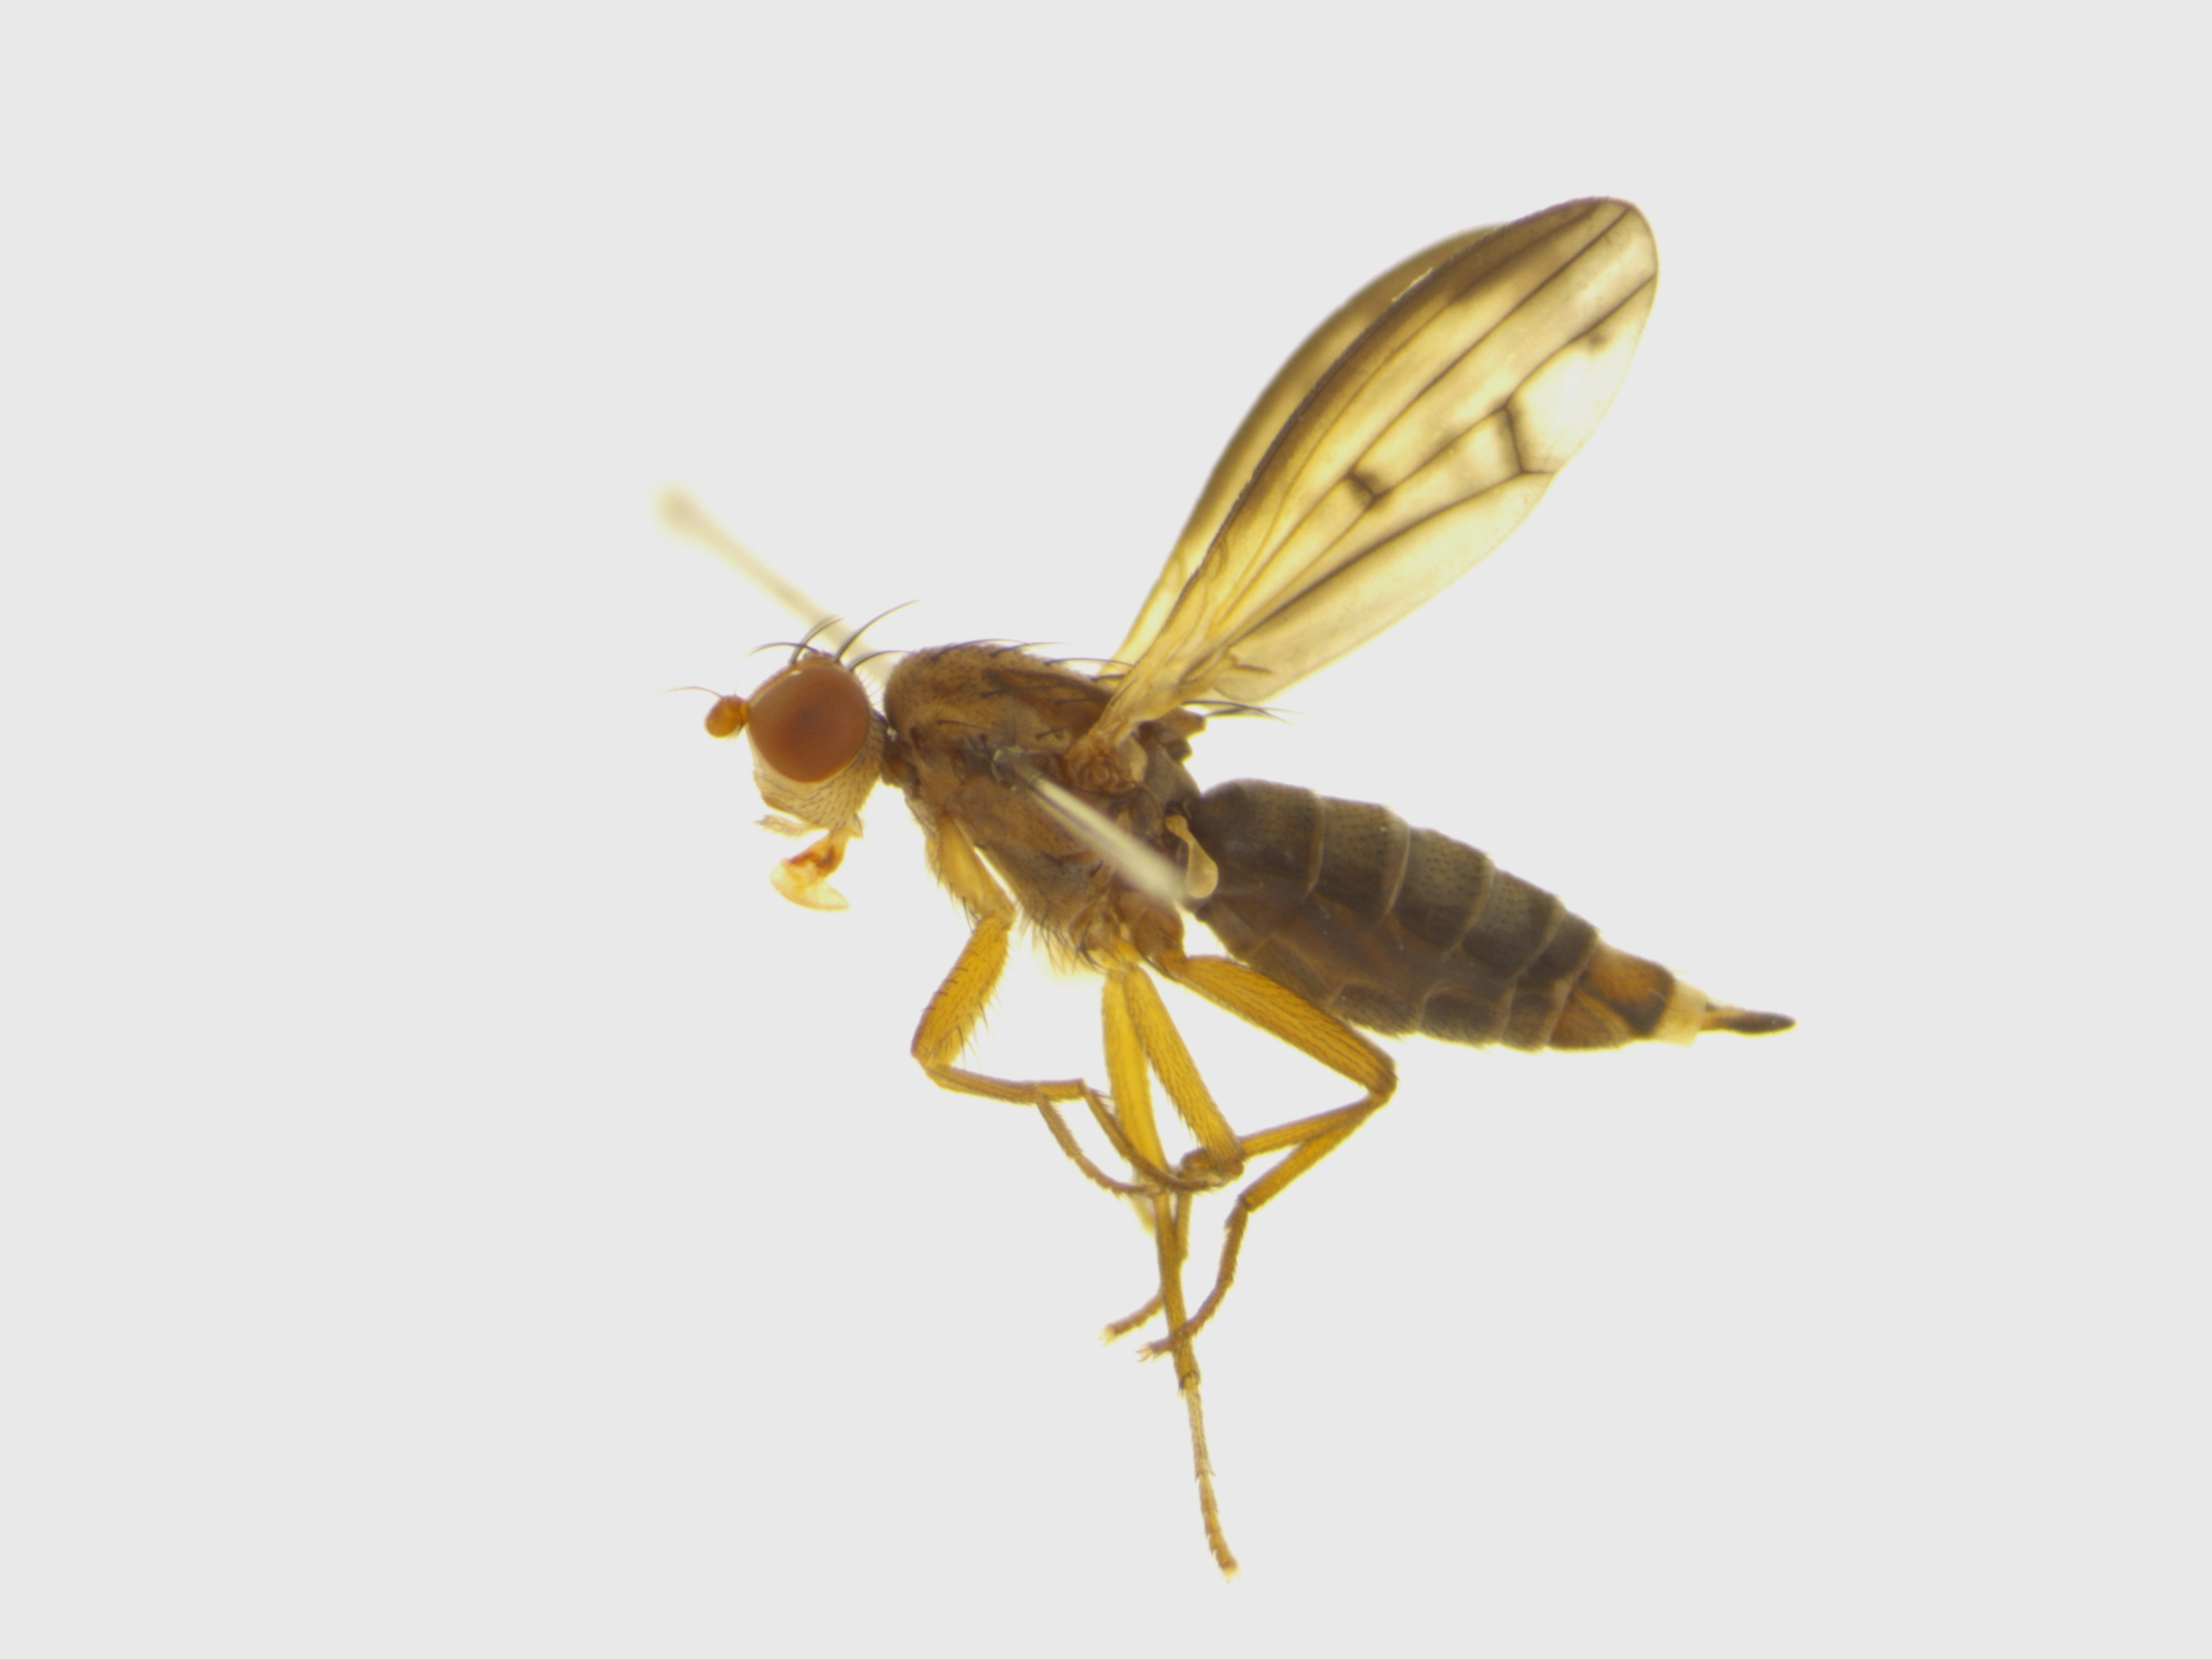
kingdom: Animalia
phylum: Arthropoda
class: Insecta
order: Diptera
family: Opomyzidae
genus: Opomyza
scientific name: Opomyza germinationis
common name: Stribet græsflue
